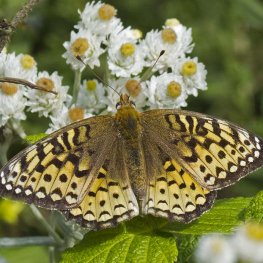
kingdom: Animalia
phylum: Arthropoda
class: Insecta
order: Lepidoptera
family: Nymphalidae
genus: Speyeria
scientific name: Speyeria atlantis
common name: Atlantis Fritillary
